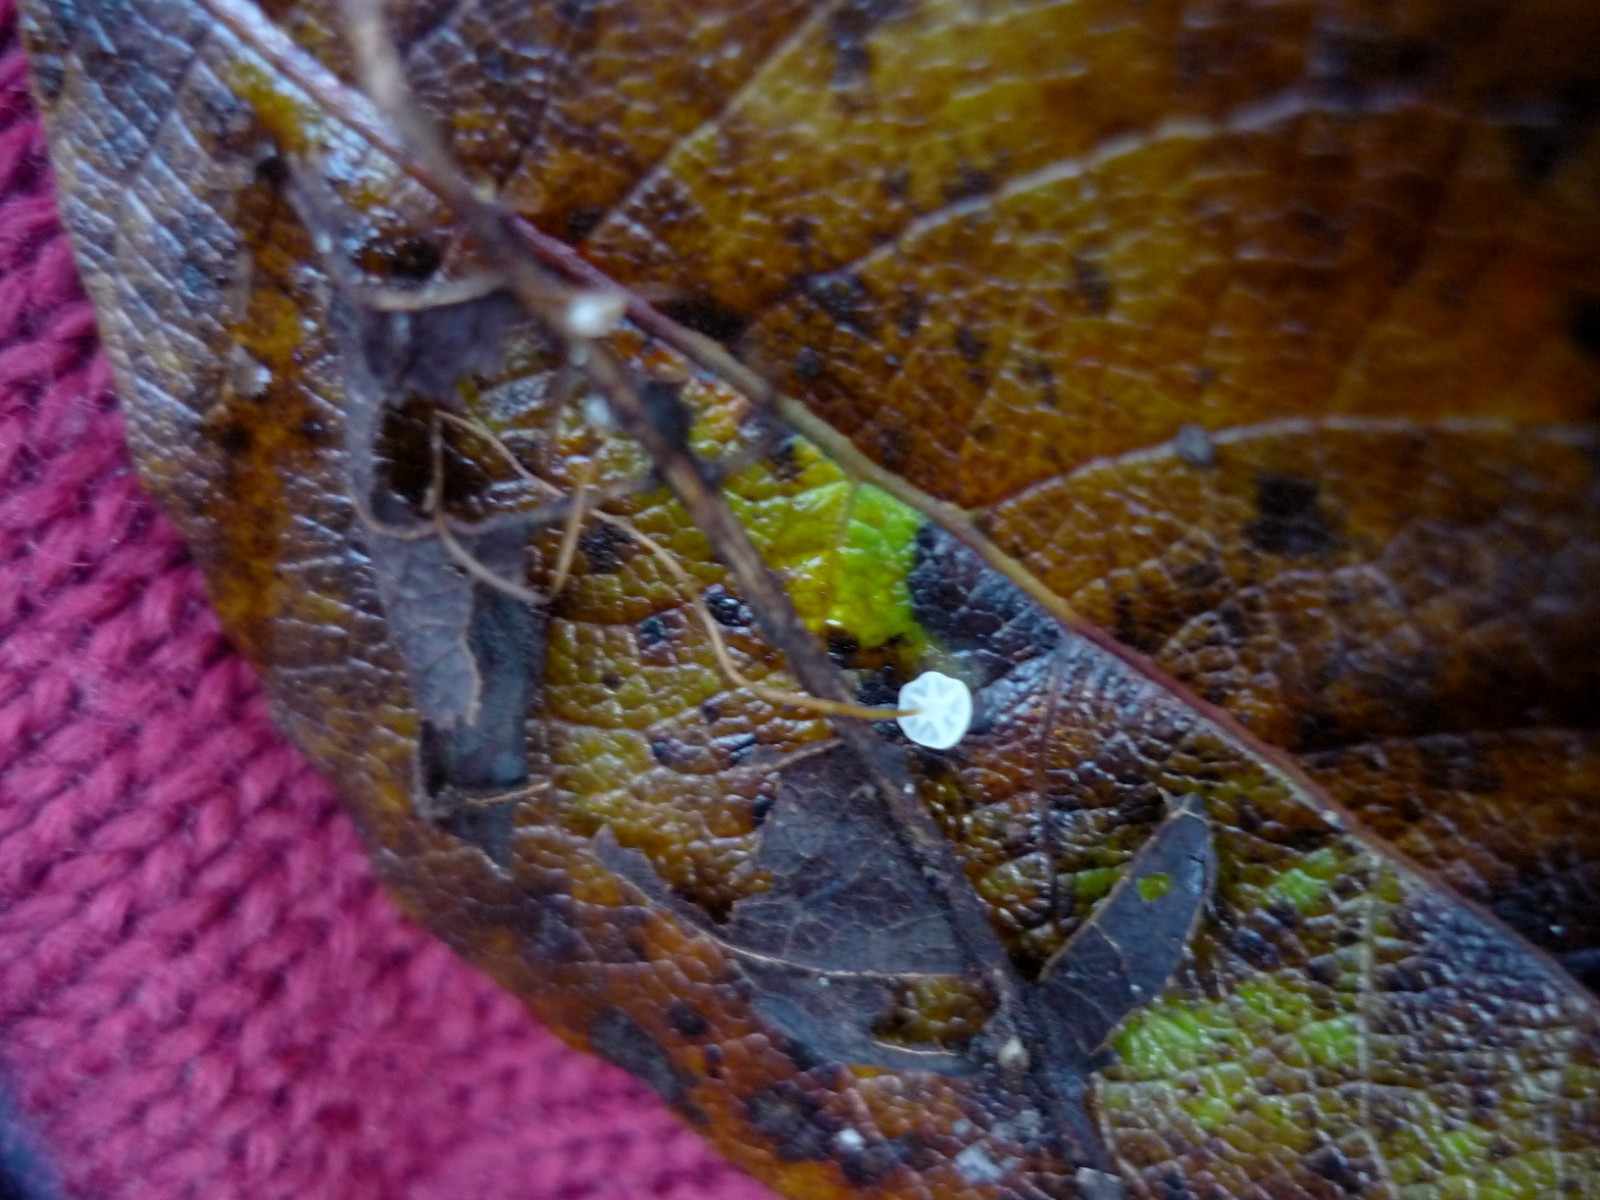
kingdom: Fungi
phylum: Basidiomycota
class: Agaricomycetes
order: Agaricales
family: Marasmiaceae
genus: Marasmius
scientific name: Marasmius epiphyllus
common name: blad-bruskhat
